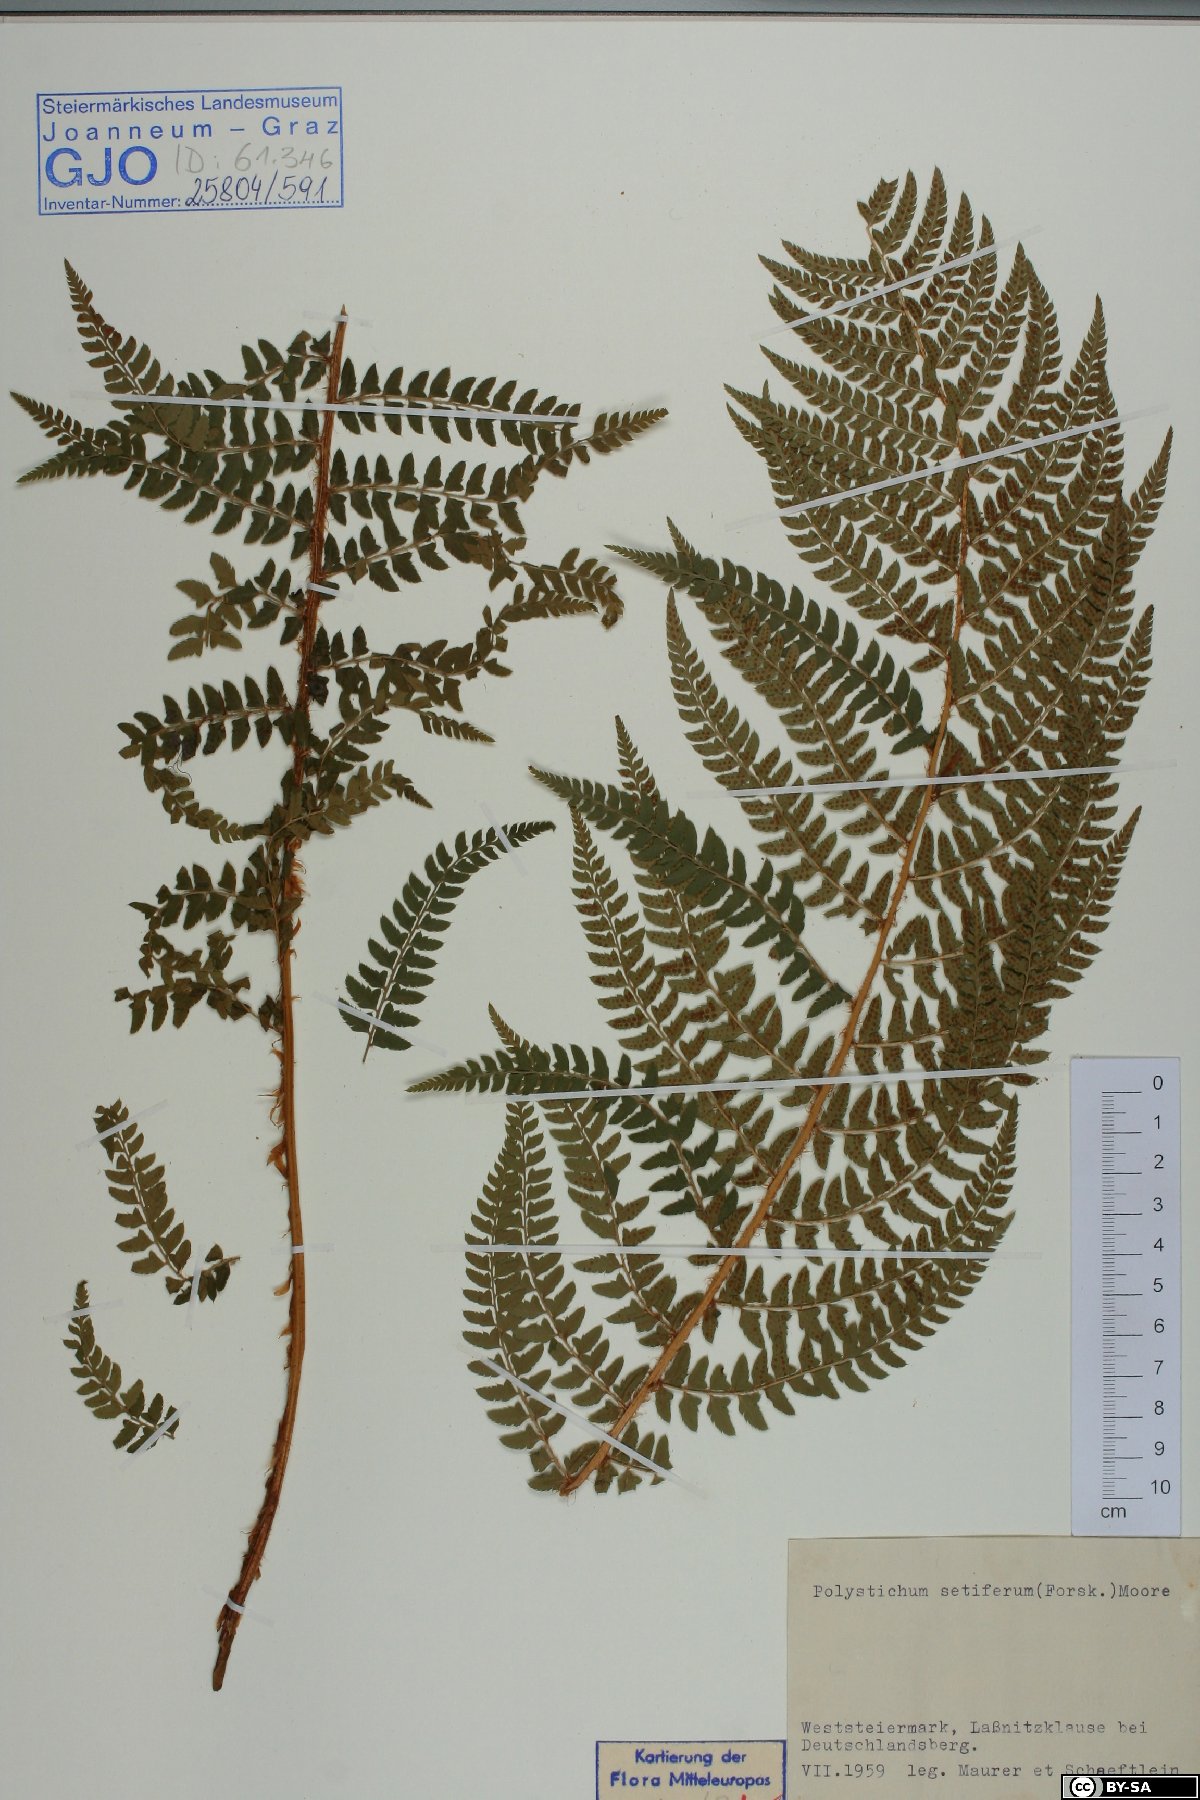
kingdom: Plantae
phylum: Tracheophyta
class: Polypodiopsida
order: Polypodiales
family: Dryopteridaceae
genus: Polystichum
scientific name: Polystichum setiferum
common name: Soft shield-fern
